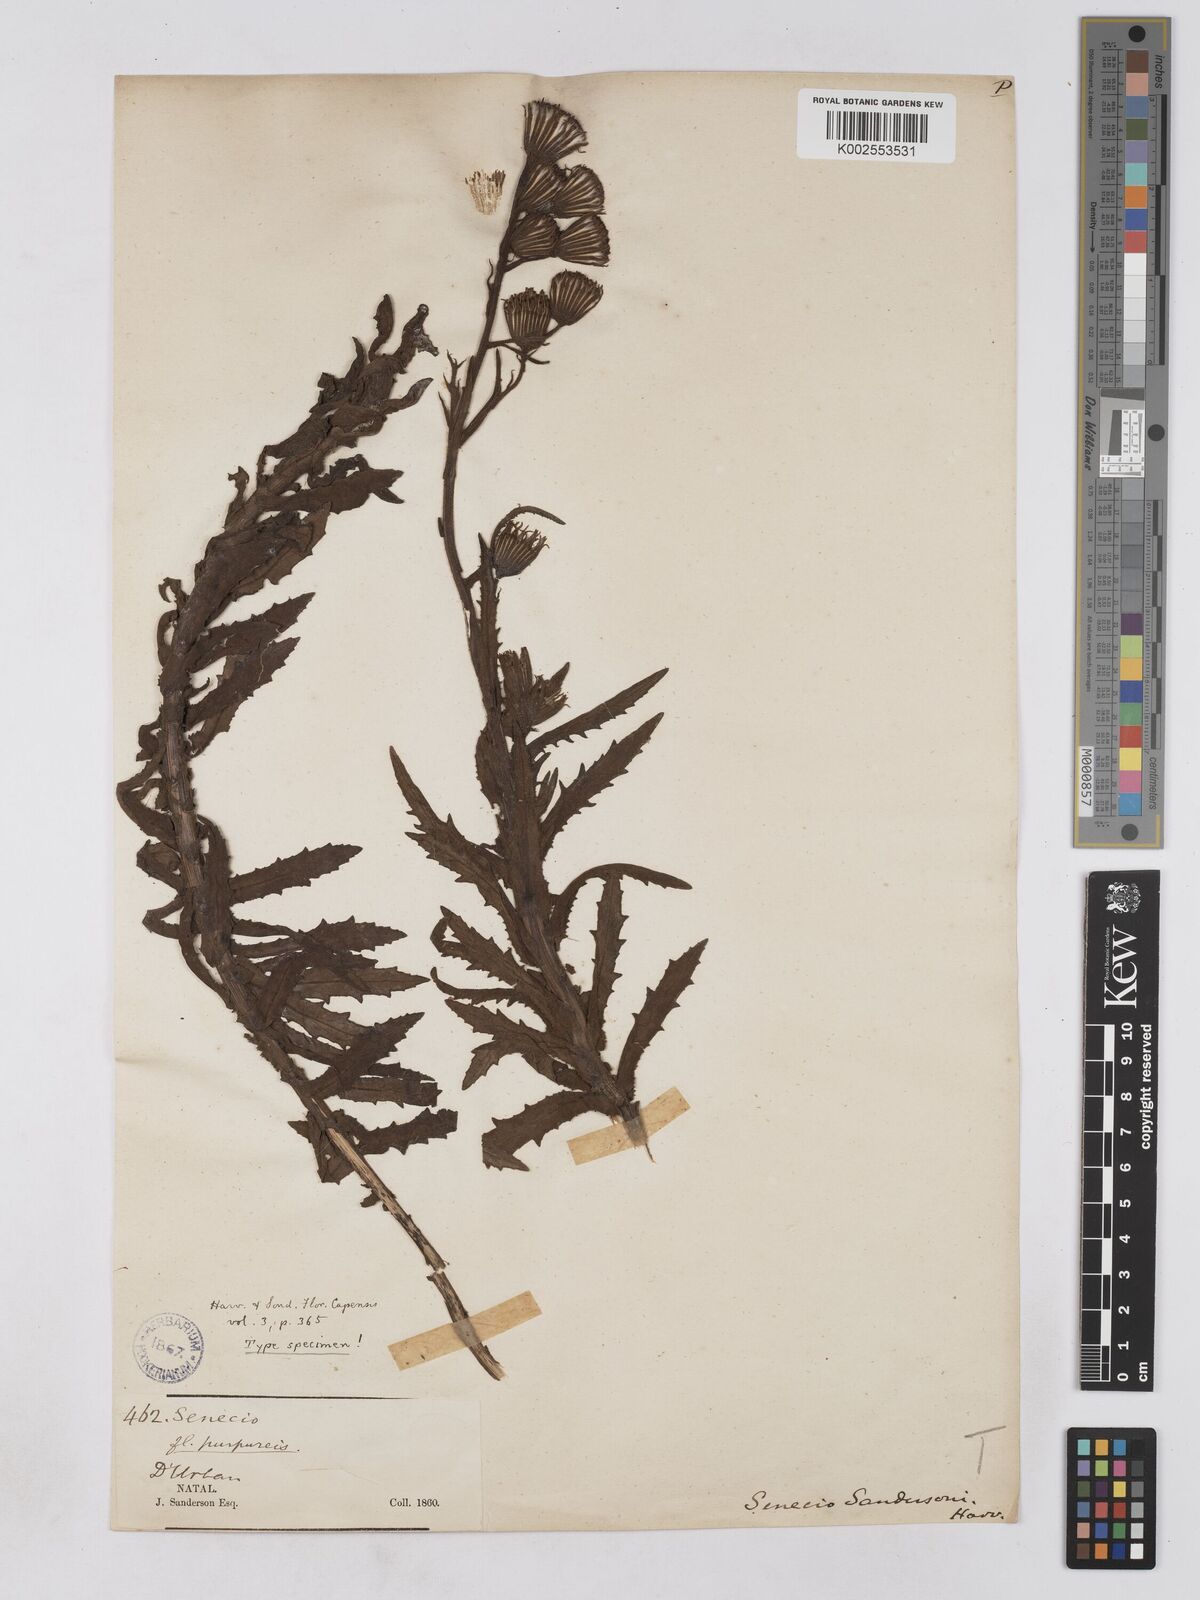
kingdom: Plantae
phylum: Tracheophyta
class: Magnoliopsida
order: Asterales
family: Asteraceae
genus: Senecio
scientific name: Senecio sandersonii
